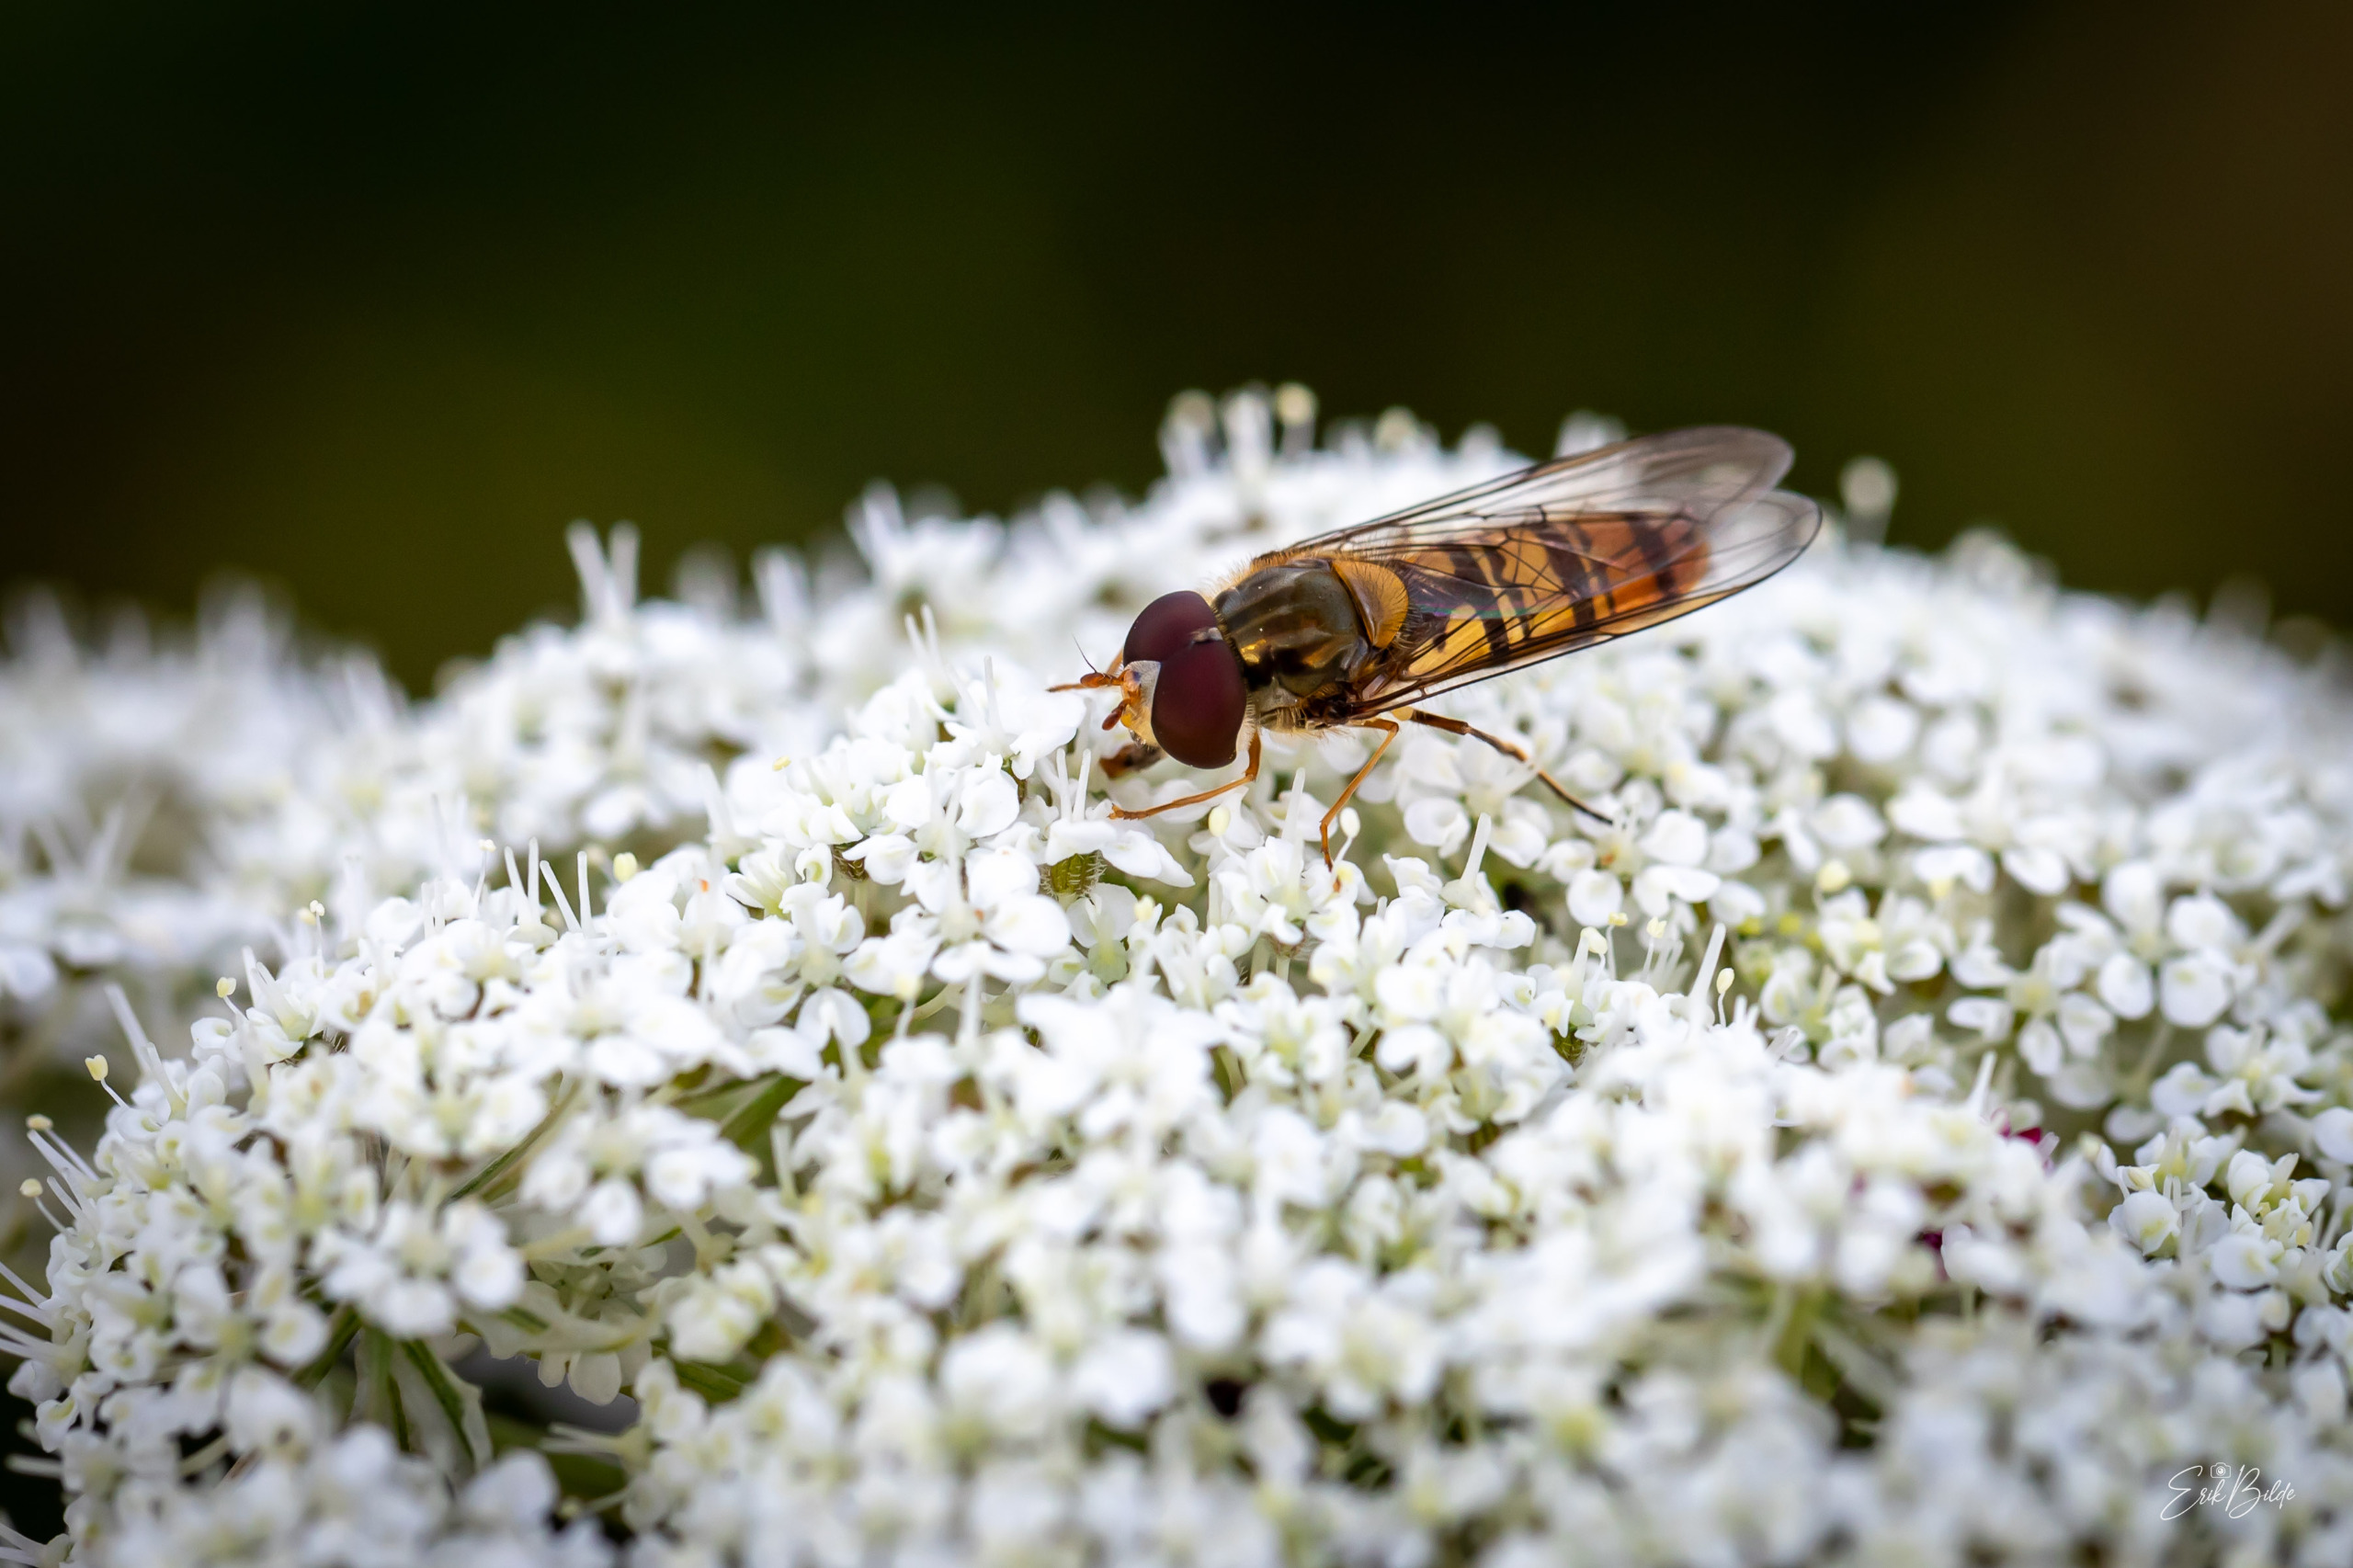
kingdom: Animalia
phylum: Arthropoda
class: Insecta
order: Diptera
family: Syrphidae
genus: Episyrphus
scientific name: Episyrphus balteatus
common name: Dobbeltbåndet svirreflue
